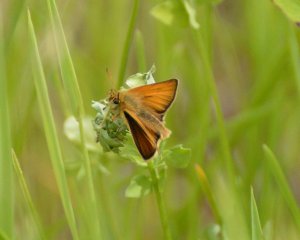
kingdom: Animalia
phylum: Arthropoda
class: Insecta
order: Lepidoptera
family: Hesperiidae
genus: Thymelicus
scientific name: Thymelicus lineola
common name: European Skipper
